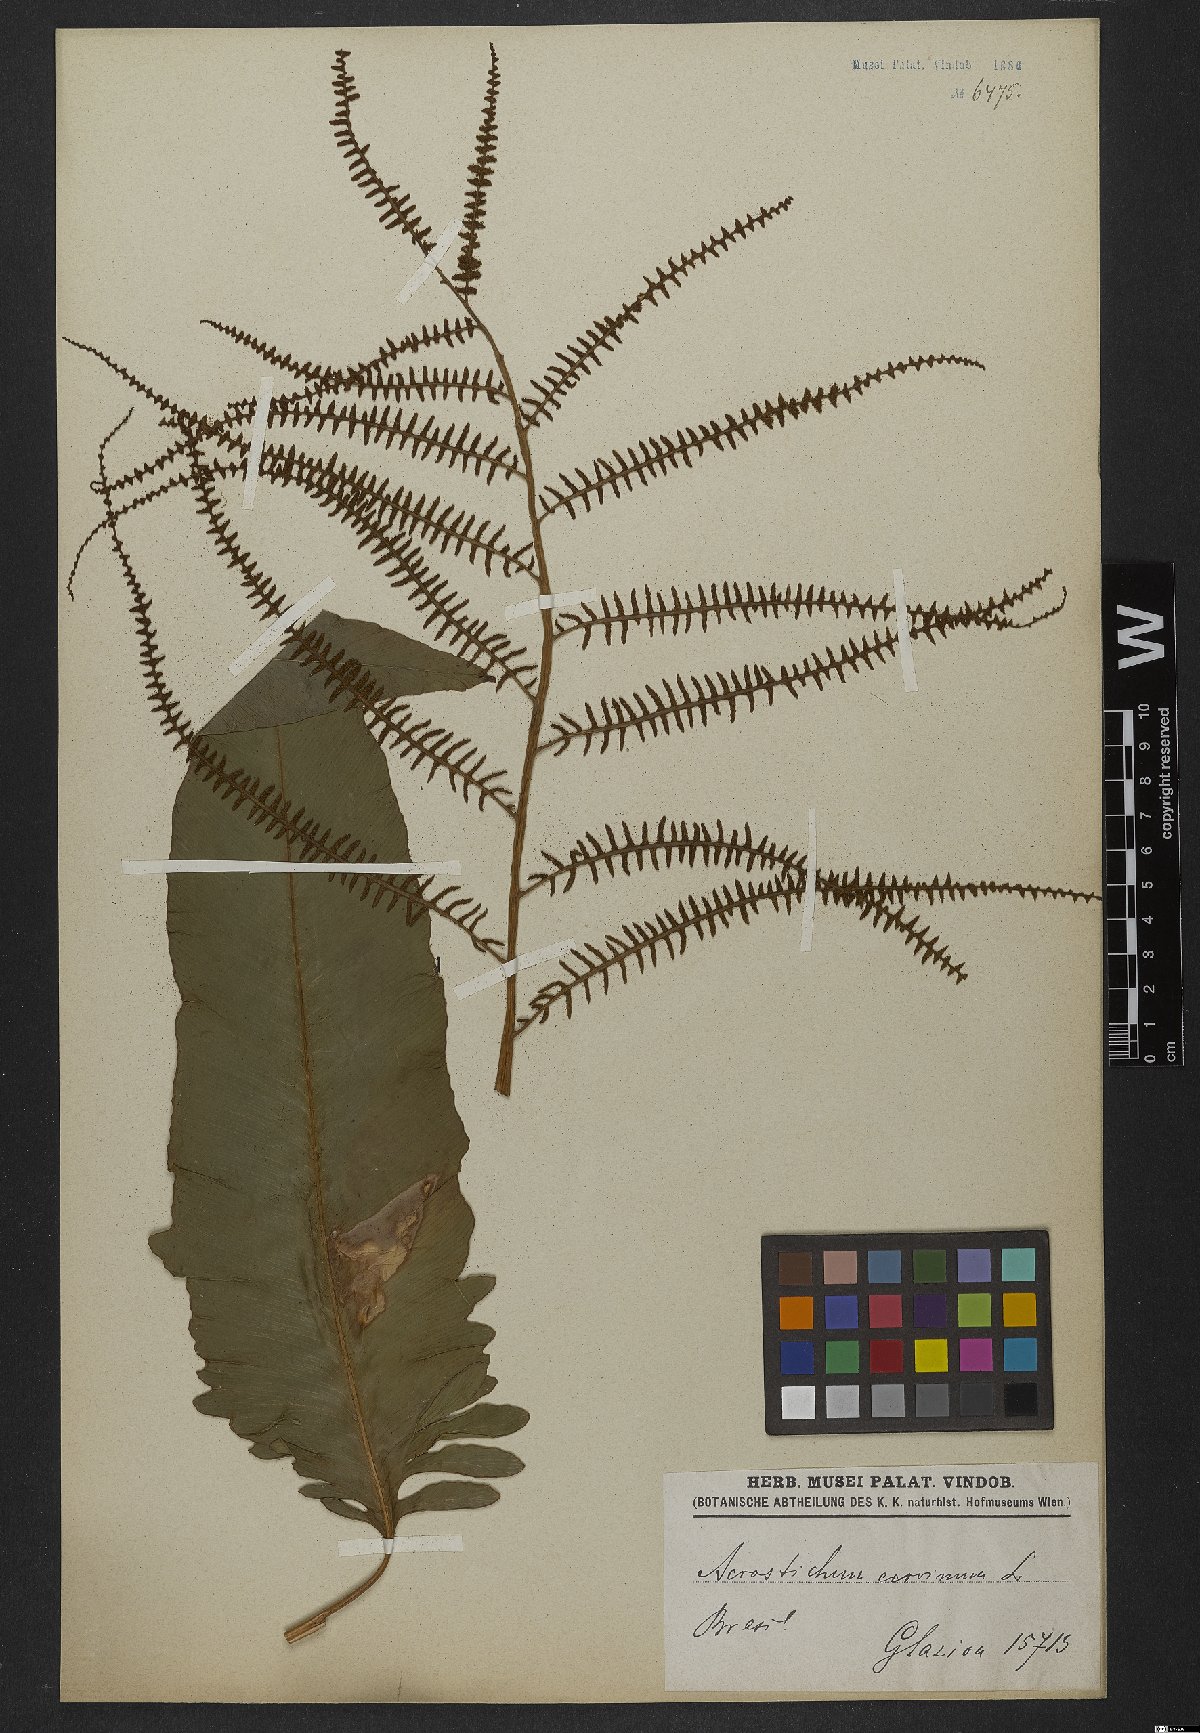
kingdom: Plantae
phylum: Tracheophyta
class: Polypodiopsida
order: Polypodiales
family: Dryopteridaceae
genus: Olfersia
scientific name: Olfersia cervina
